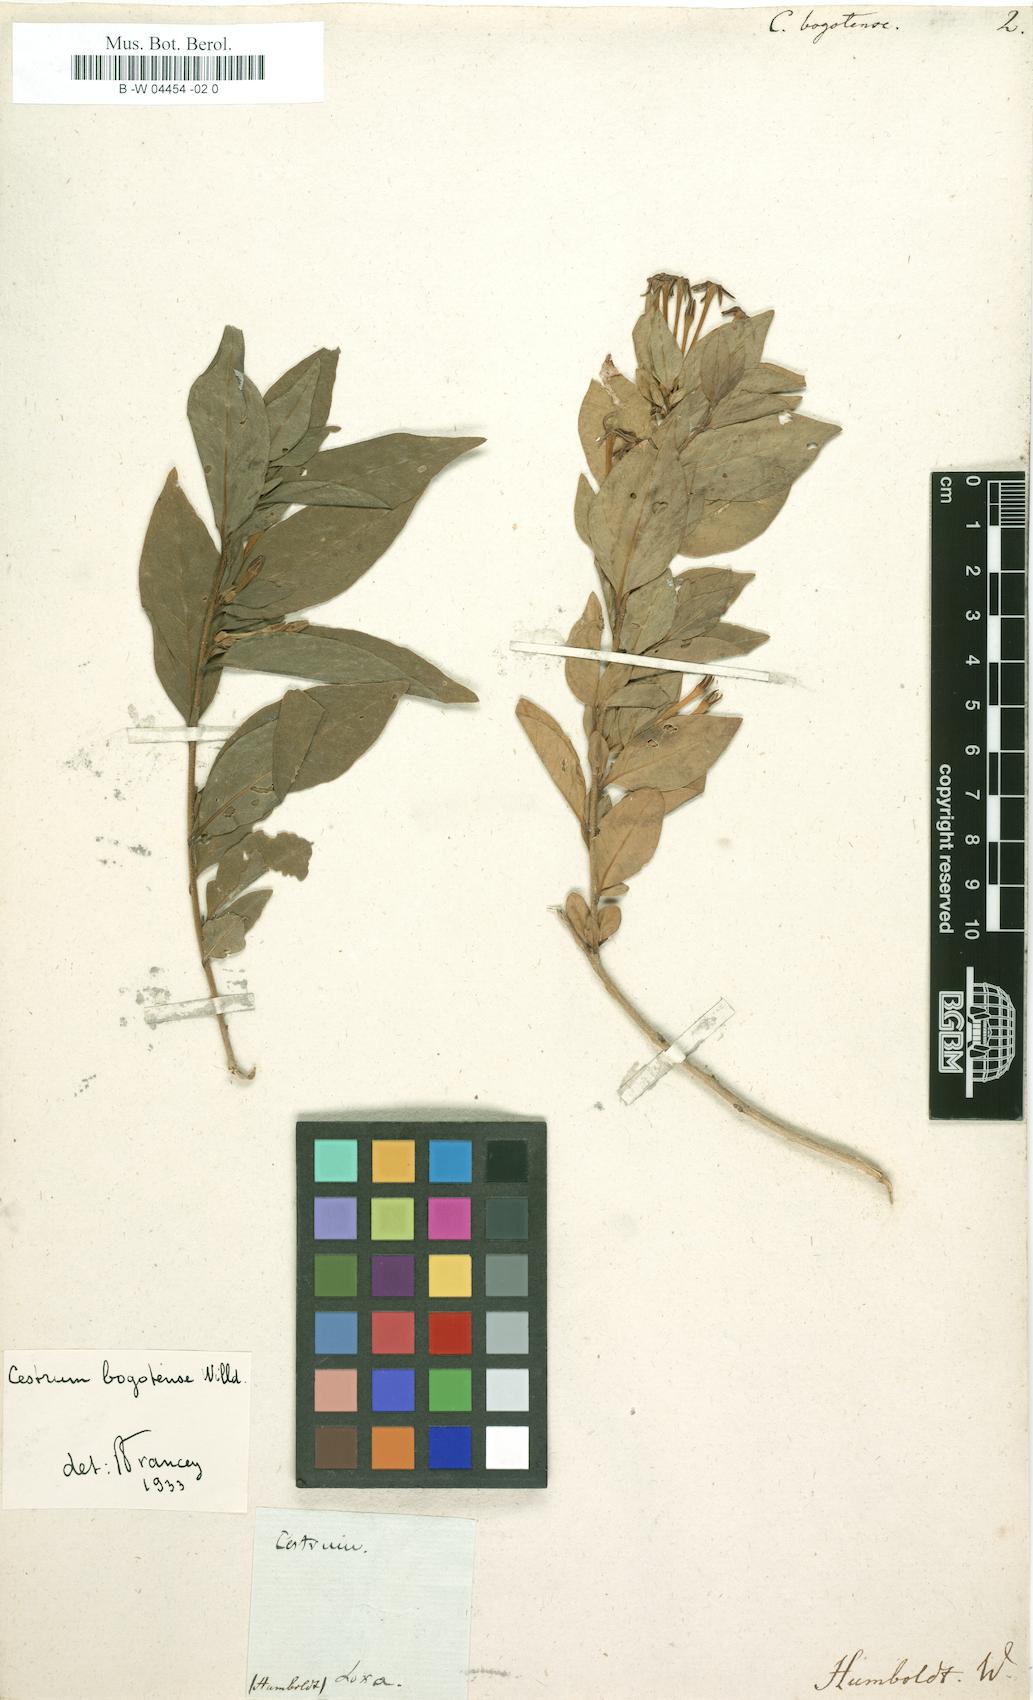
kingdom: Plantae
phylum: Tracheophyta
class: Magnoliopsida
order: Solanales
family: Solanaceae
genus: Cestrum
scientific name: Cestrum mariquitense
